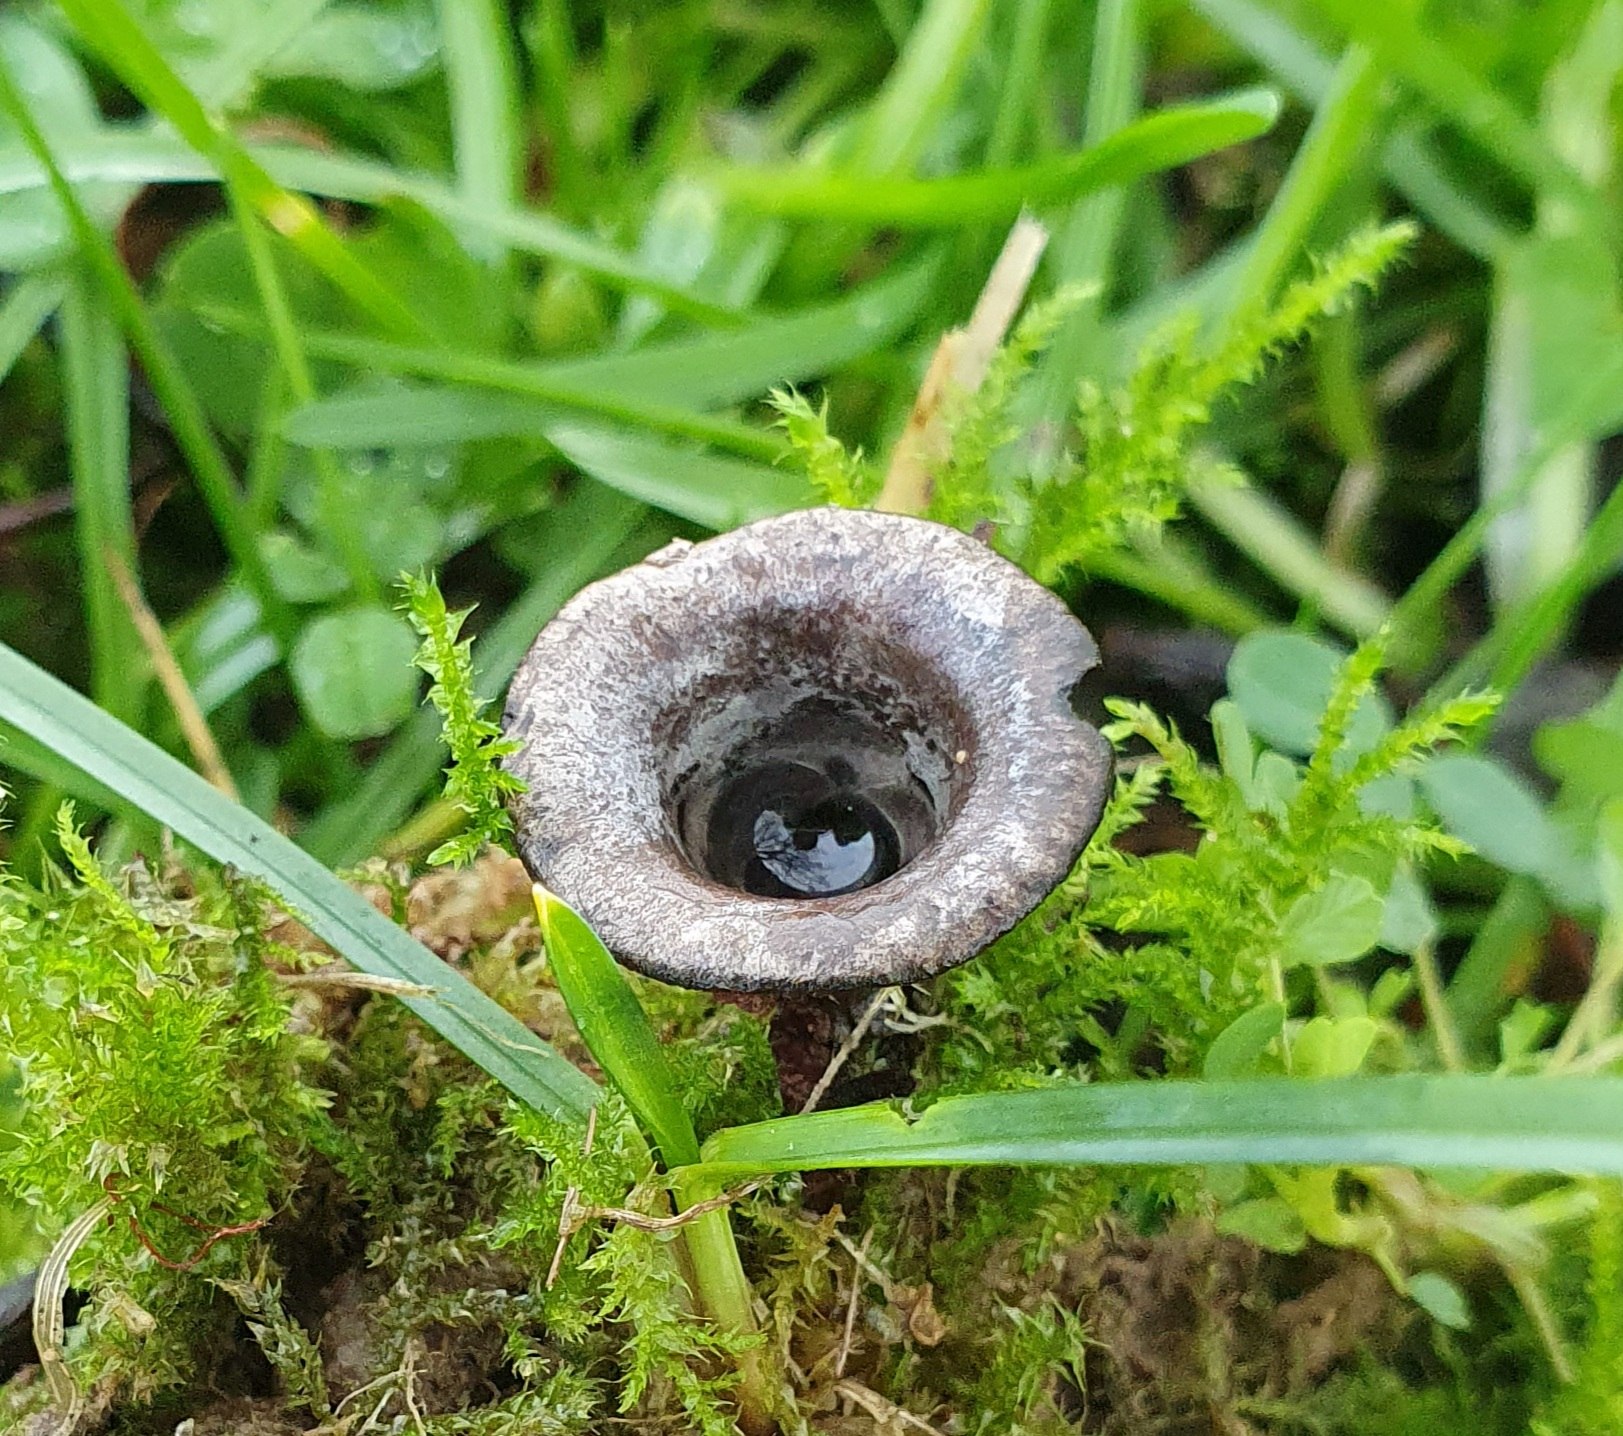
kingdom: Fungi
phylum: Basidiomycota
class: Agaricomycetes
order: Agaricales
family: Agaricaceae
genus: Cyathus
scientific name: Cyathus olla
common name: klokke-redesvamp
